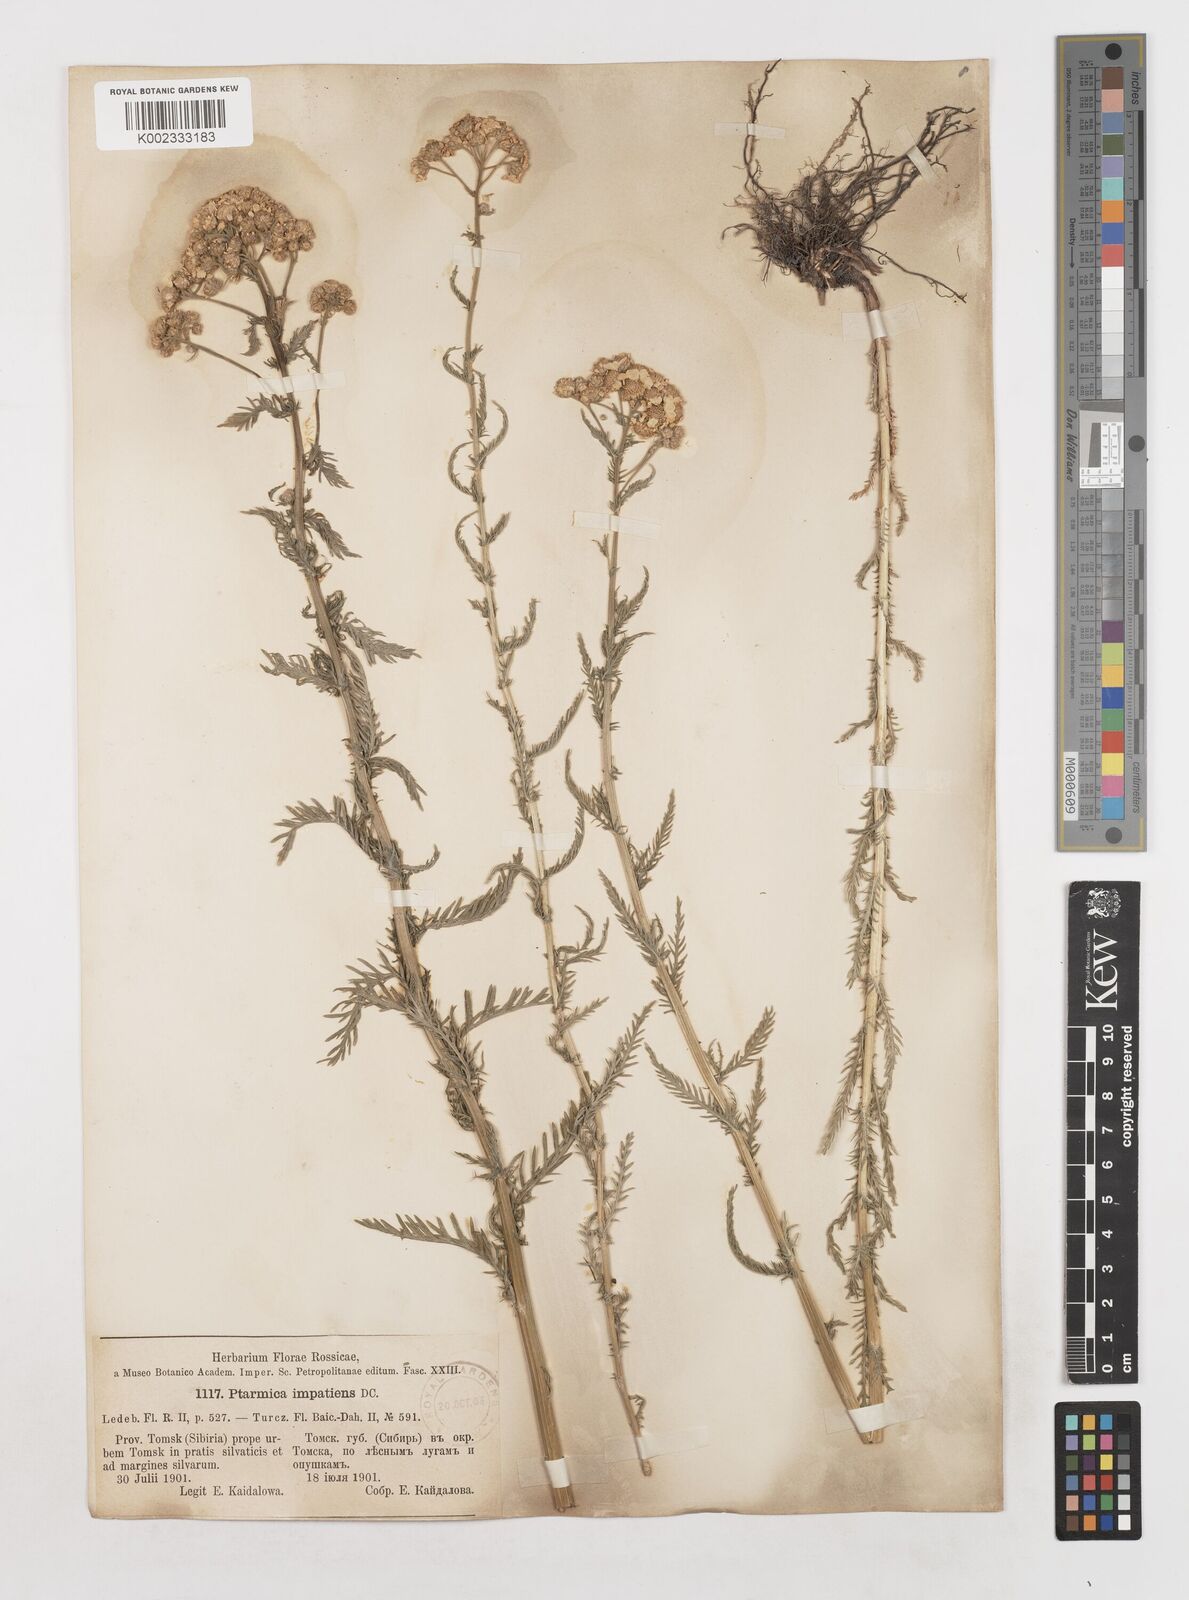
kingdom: Plantae
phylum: Tracheophyta
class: Magnoliopsida
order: Asterales
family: Asteraceae
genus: Achillea
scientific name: Achillea impatiens
